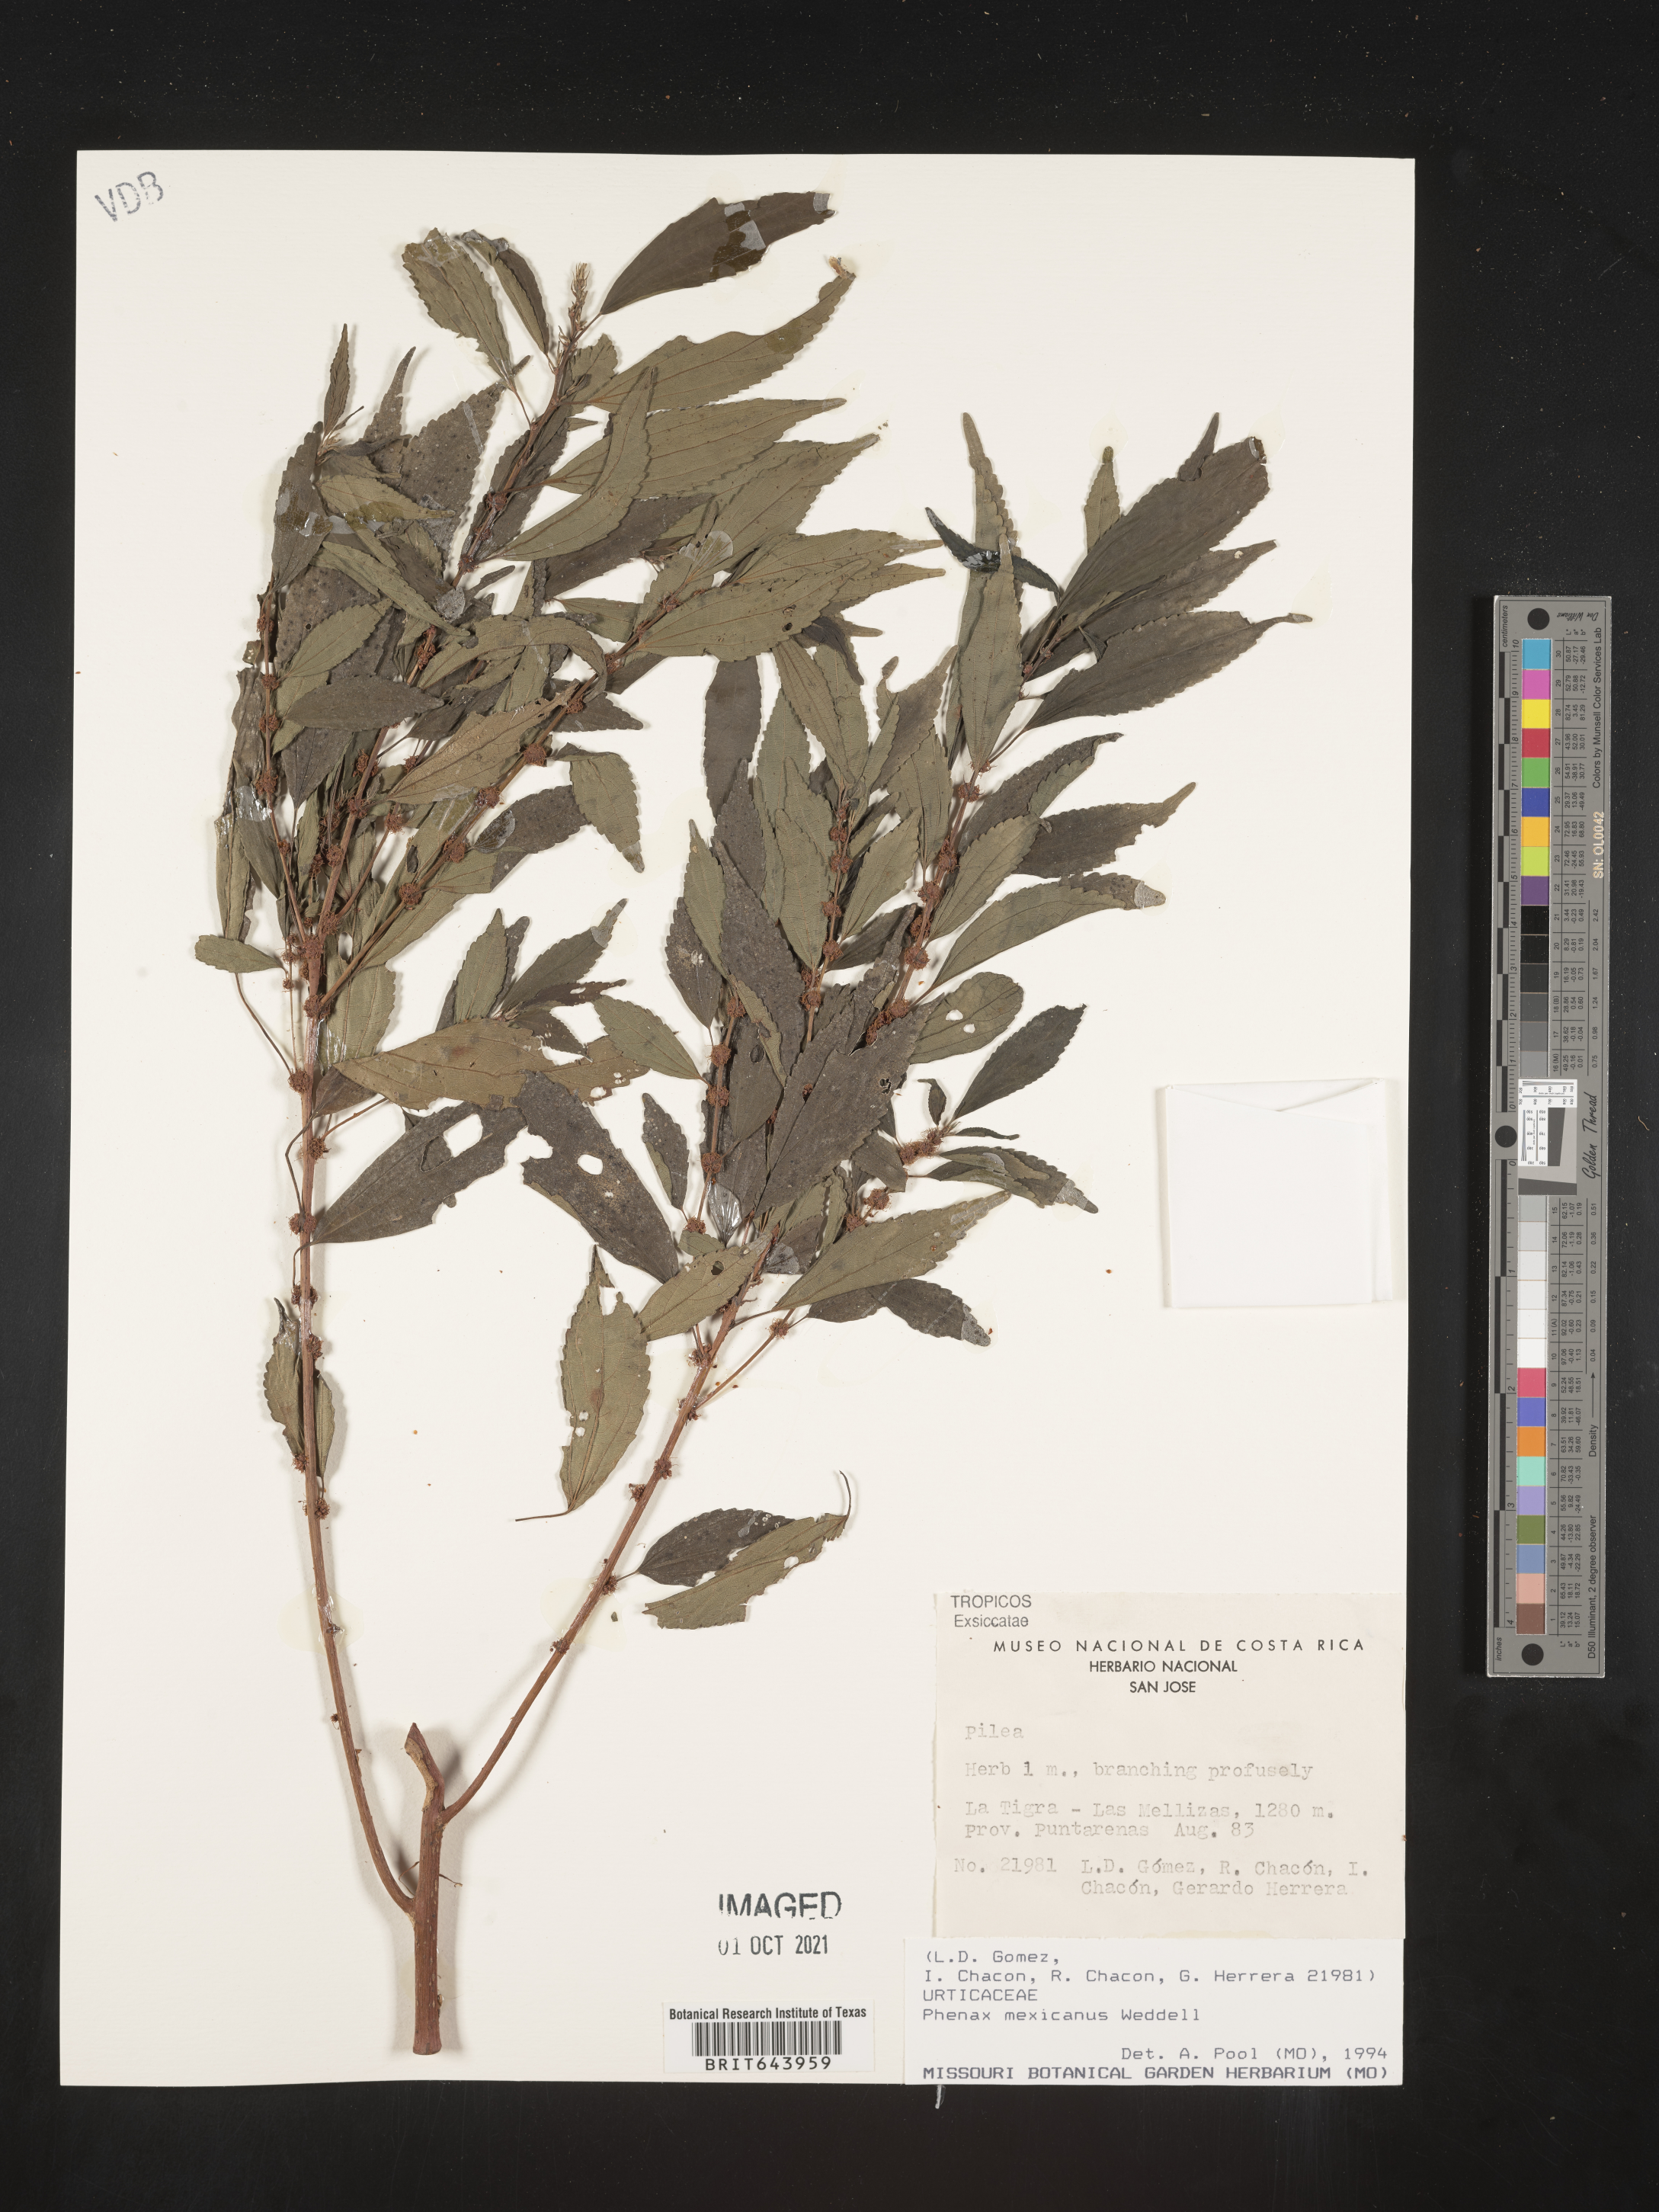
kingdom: Plantae
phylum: Tracheophyta
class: Magnoliopsida
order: Rosales
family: Urticaceae
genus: Phenax
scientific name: Phenax
